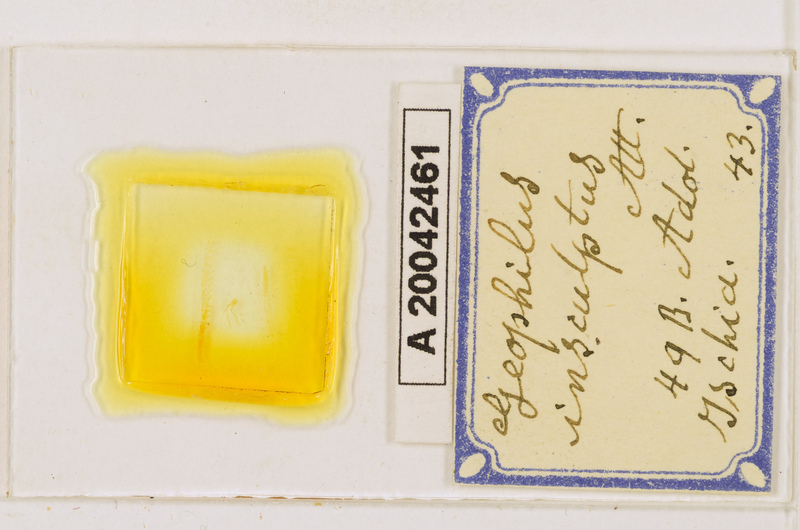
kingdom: Animalia
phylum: Arthropoda
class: Chilopoda
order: Geophilomorpha
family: Geophilidae
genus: Geophilus
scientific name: Geophilus insculptus
